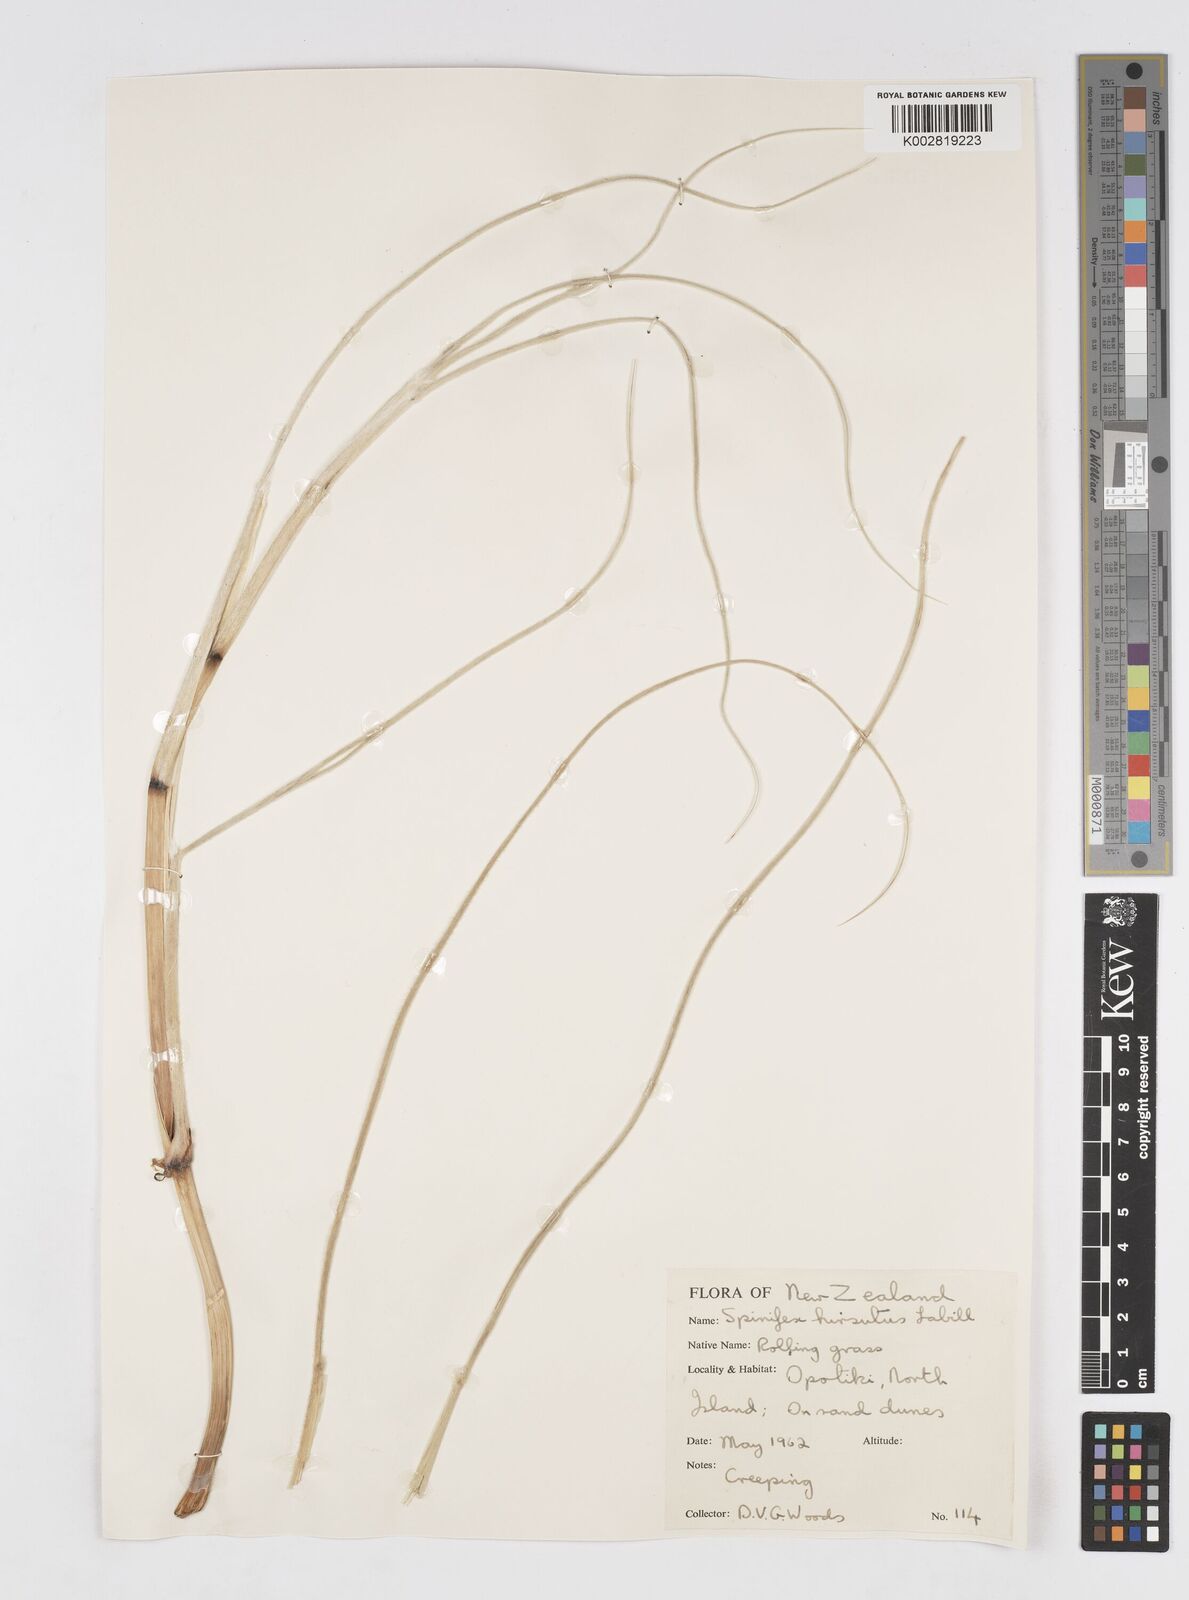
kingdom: Plantae
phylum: Tracheophyta
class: Liliopsida
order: Poales
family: Poaceae
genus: Spinifex
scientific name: Spinifex sericeus
